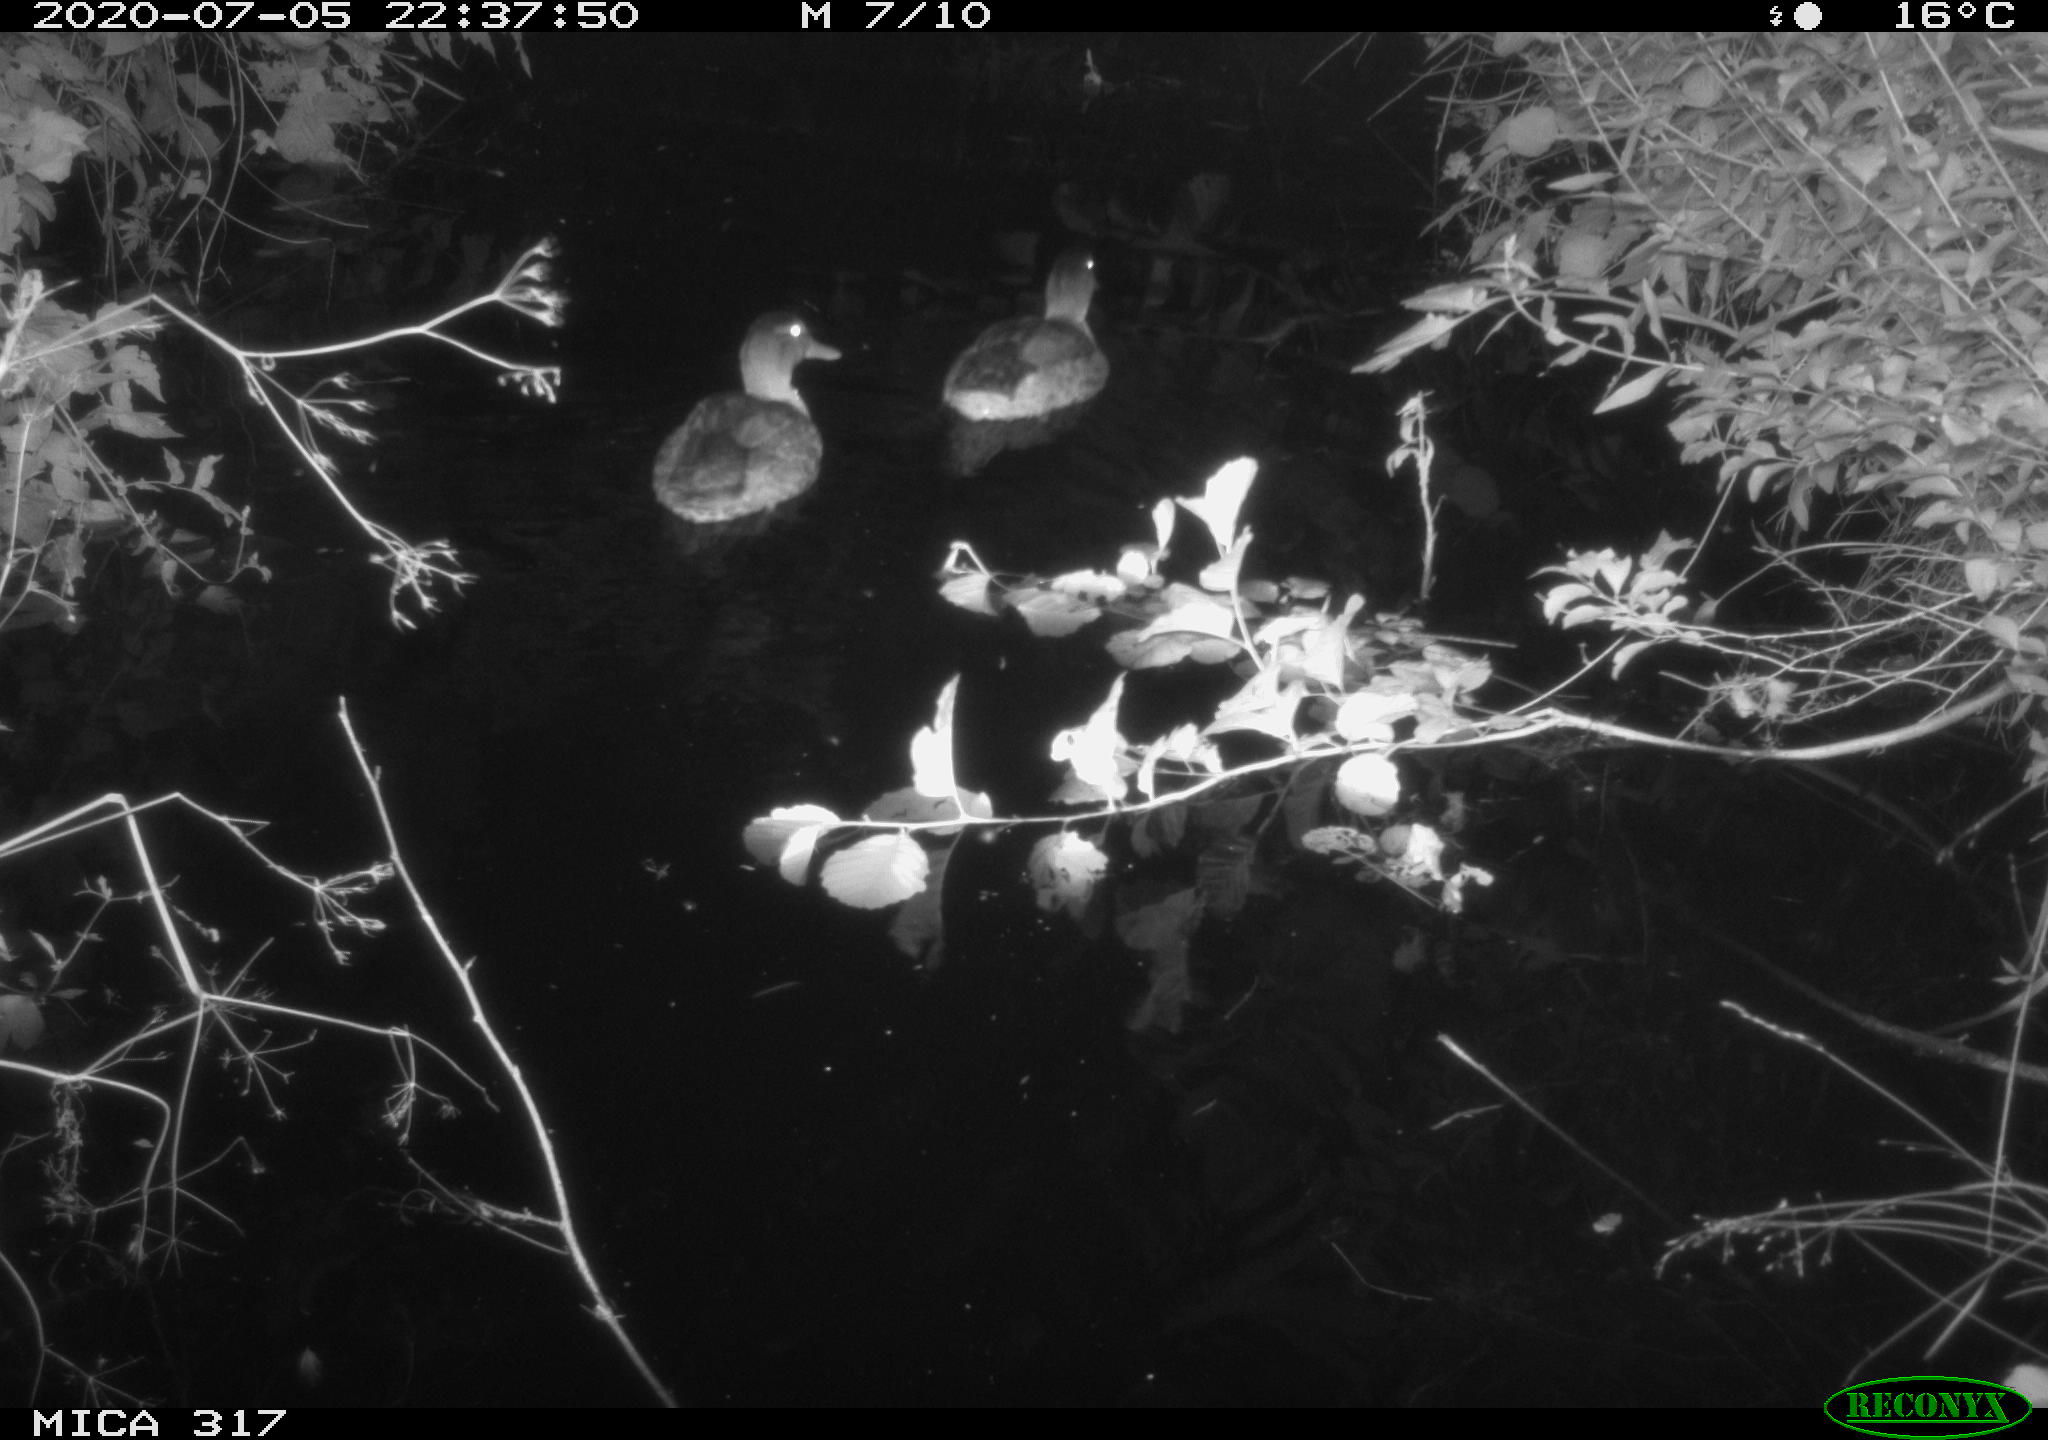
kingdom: Animalia
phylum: Chordata
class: Aves
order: Anseriformes
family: Anatidae
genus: Anas
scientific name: Anas platyrhynchos
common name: Mallard
